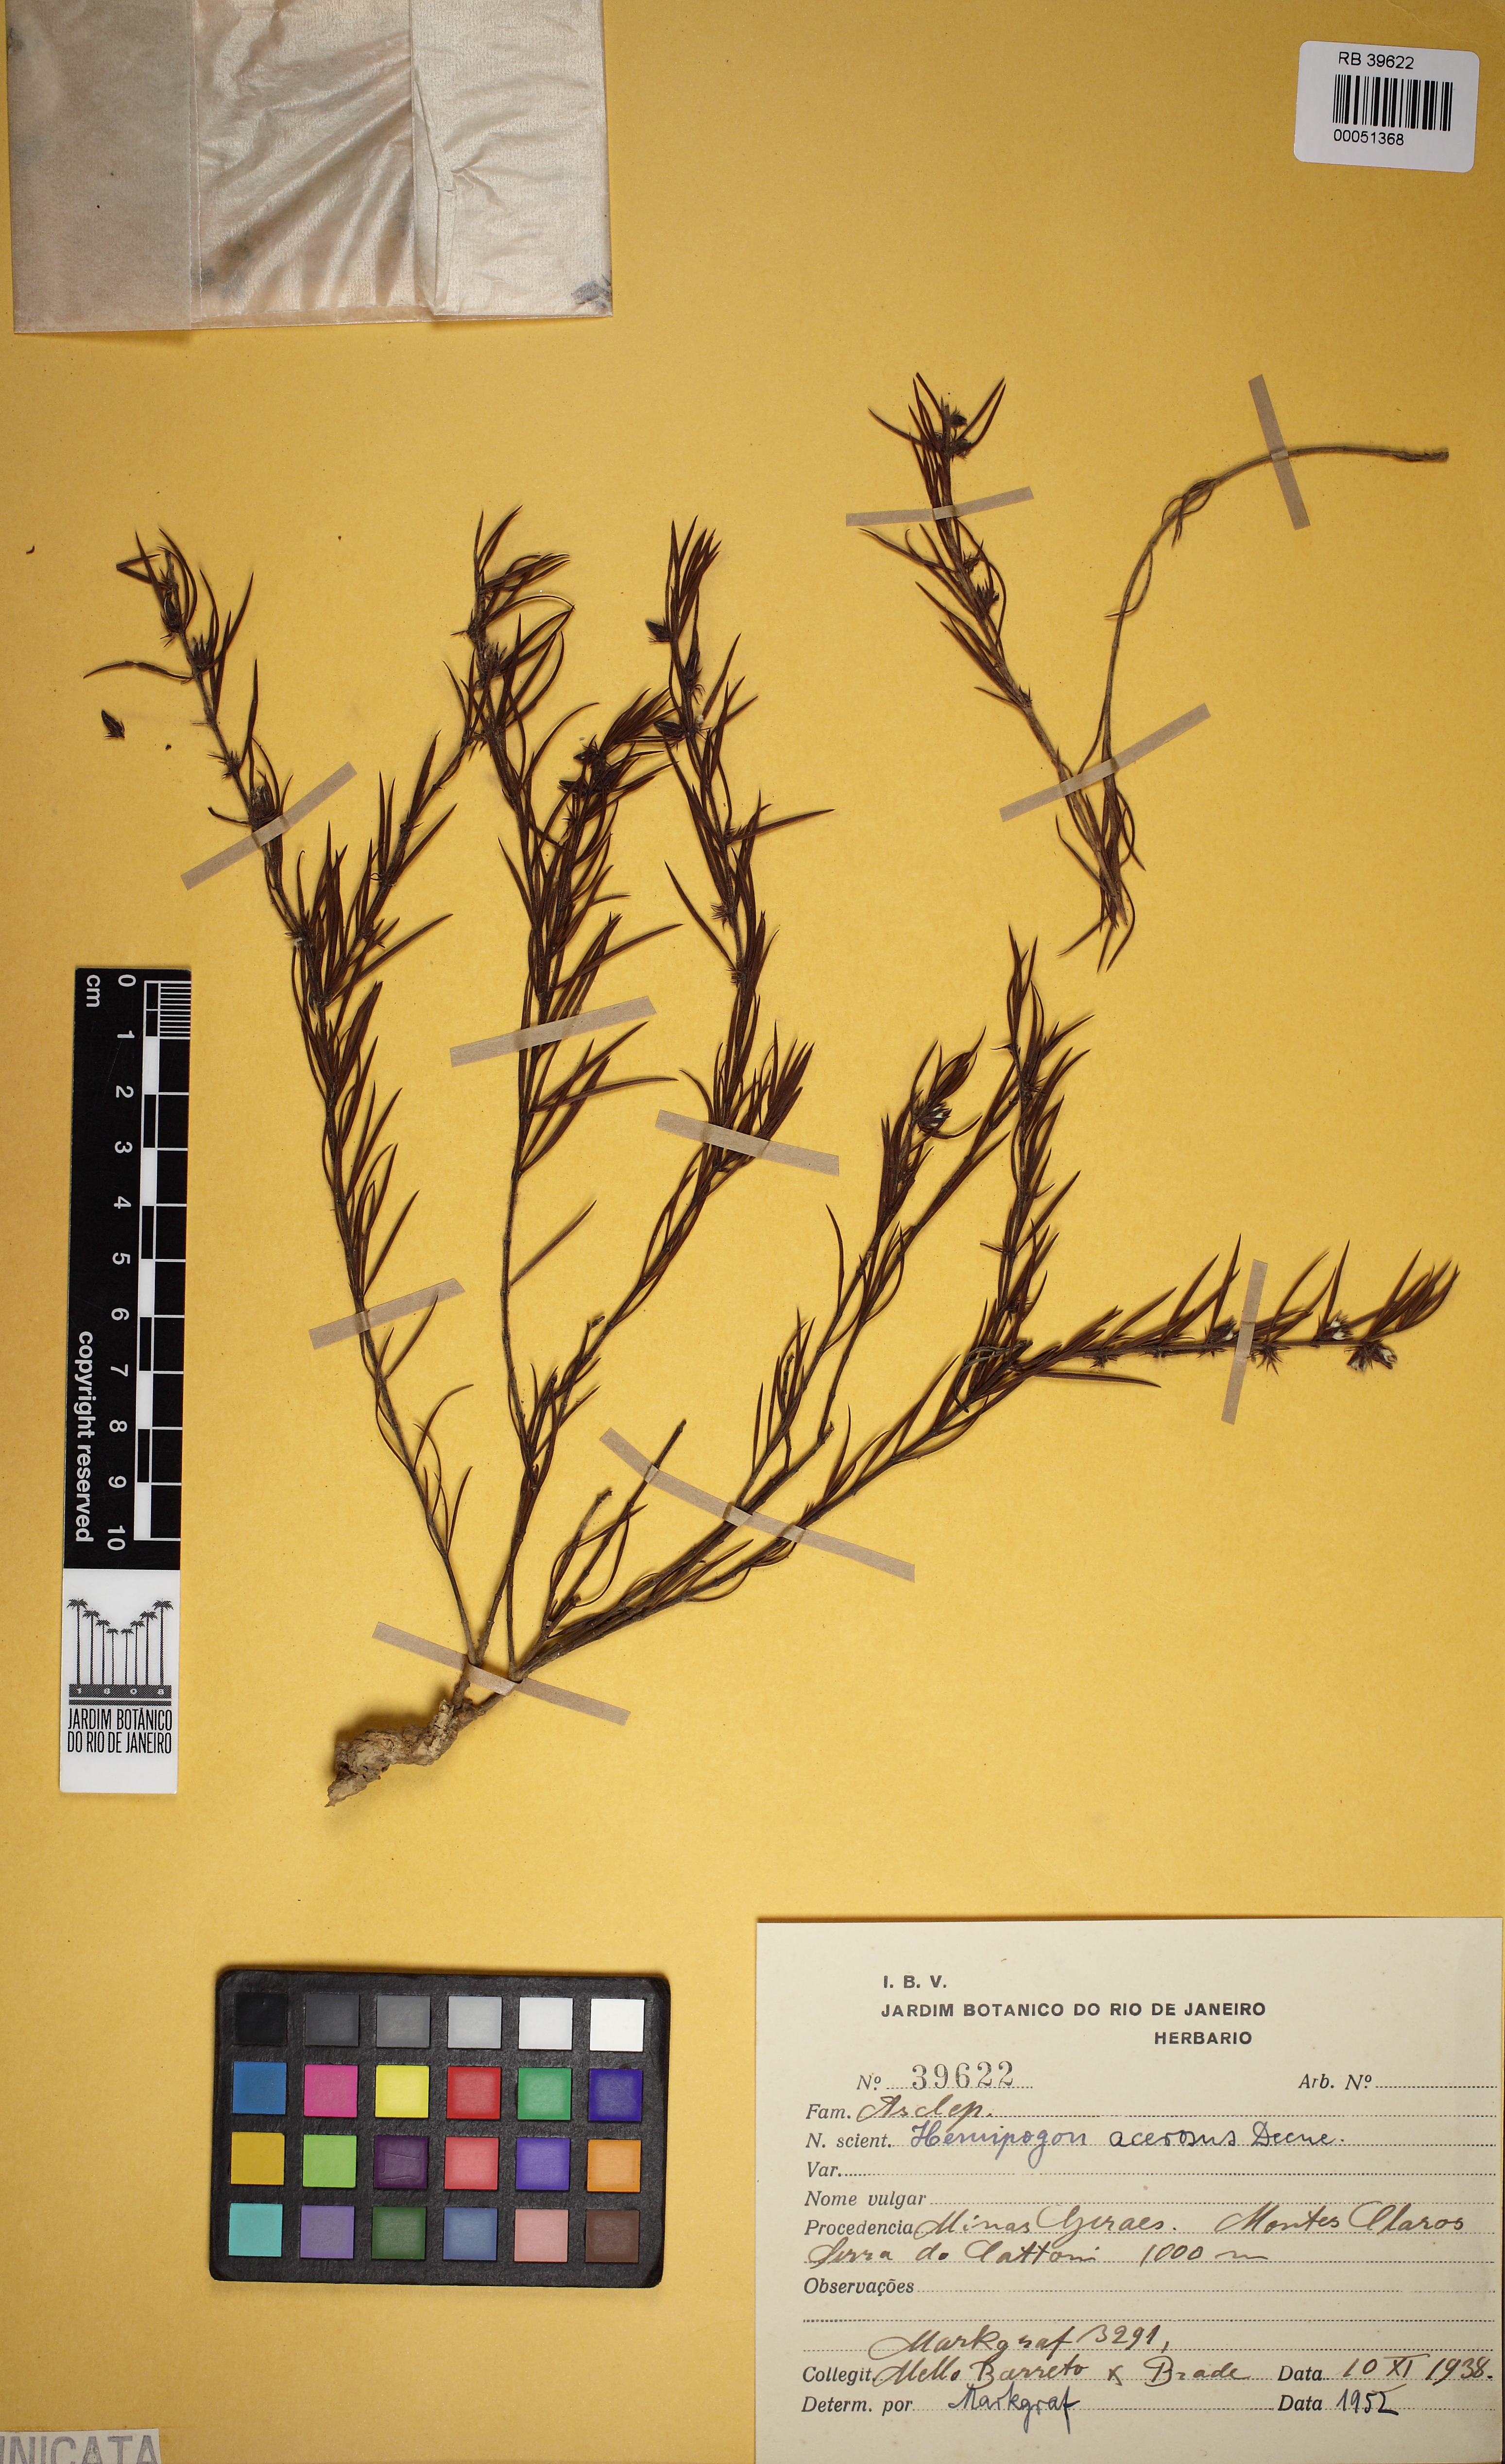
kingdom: Plantae
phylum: Tracheophyta
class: Magnoliopsida
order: Gentianales
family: Apocynaceae
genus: Hemipogon
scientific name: Hemipogon acerosus
